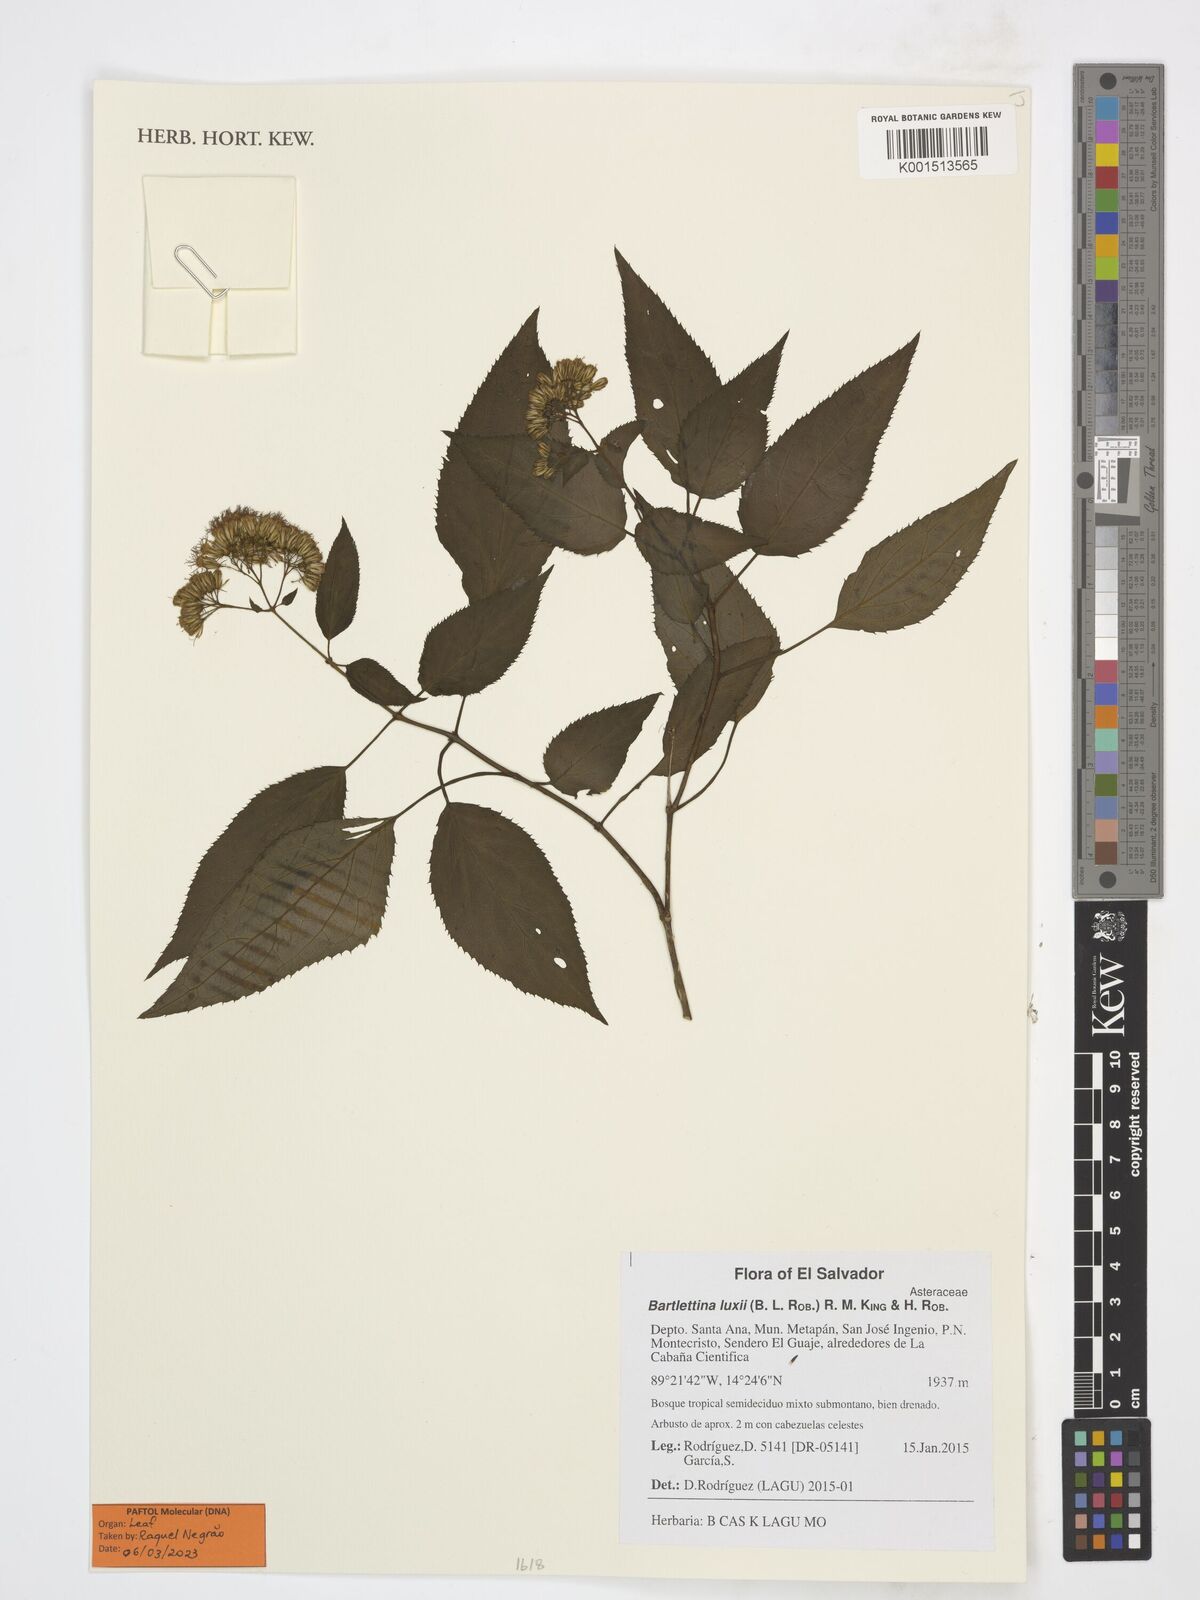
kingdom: Plantae
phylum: Tracheophyta
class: Magnoliopsida
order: Asterales
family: Asteraceae
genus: Bartlettina
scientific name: Bartlettina luxii
